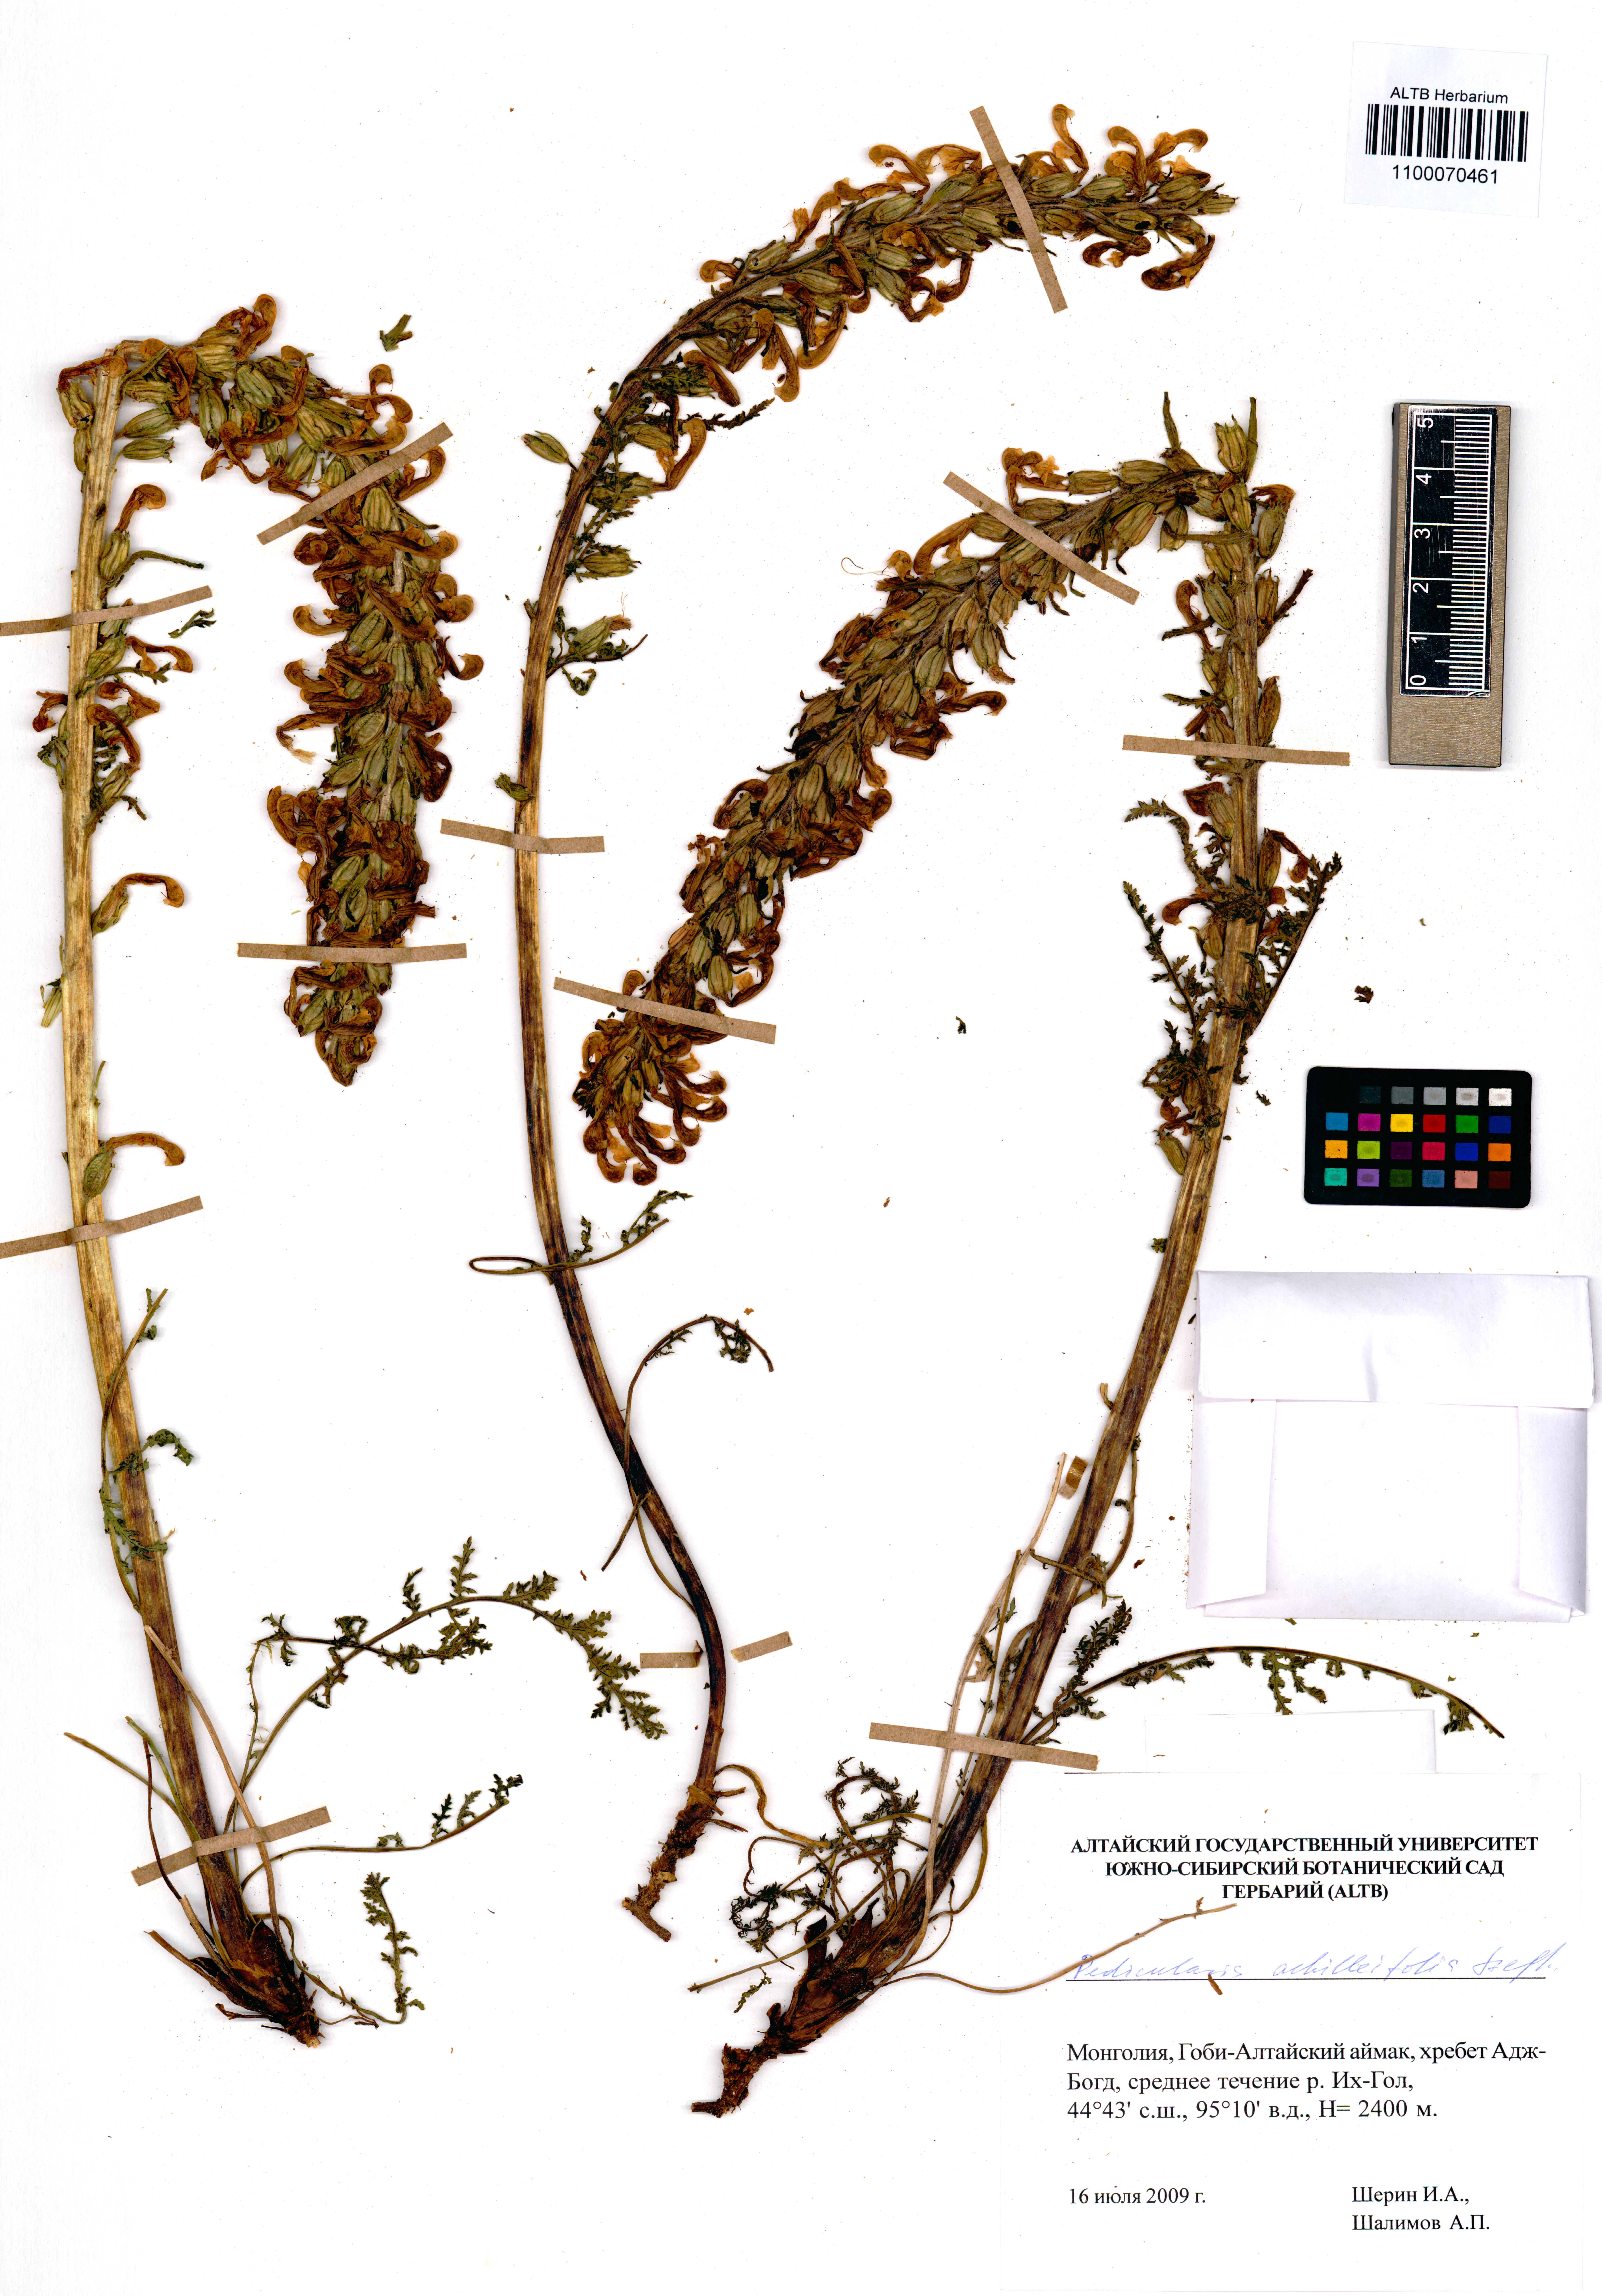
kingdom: Plantae
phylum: Tracheophyta
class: Magnoliopsida
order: Lamiales
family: Orobanchaceae
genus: Pedicularis
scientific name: Pedicularis achilleifolia
